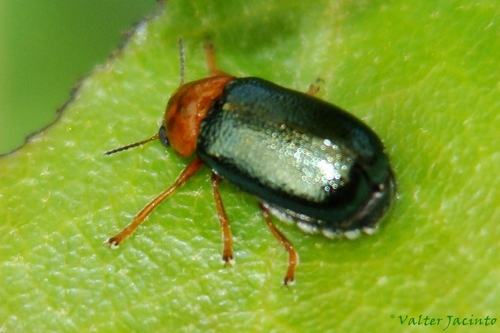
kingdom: Animalia
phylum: Arthropoda
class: Insecta
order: Coleoptera
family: Chrysomelidae
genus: Smaragdina
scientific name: Smaragdina clavareaui
